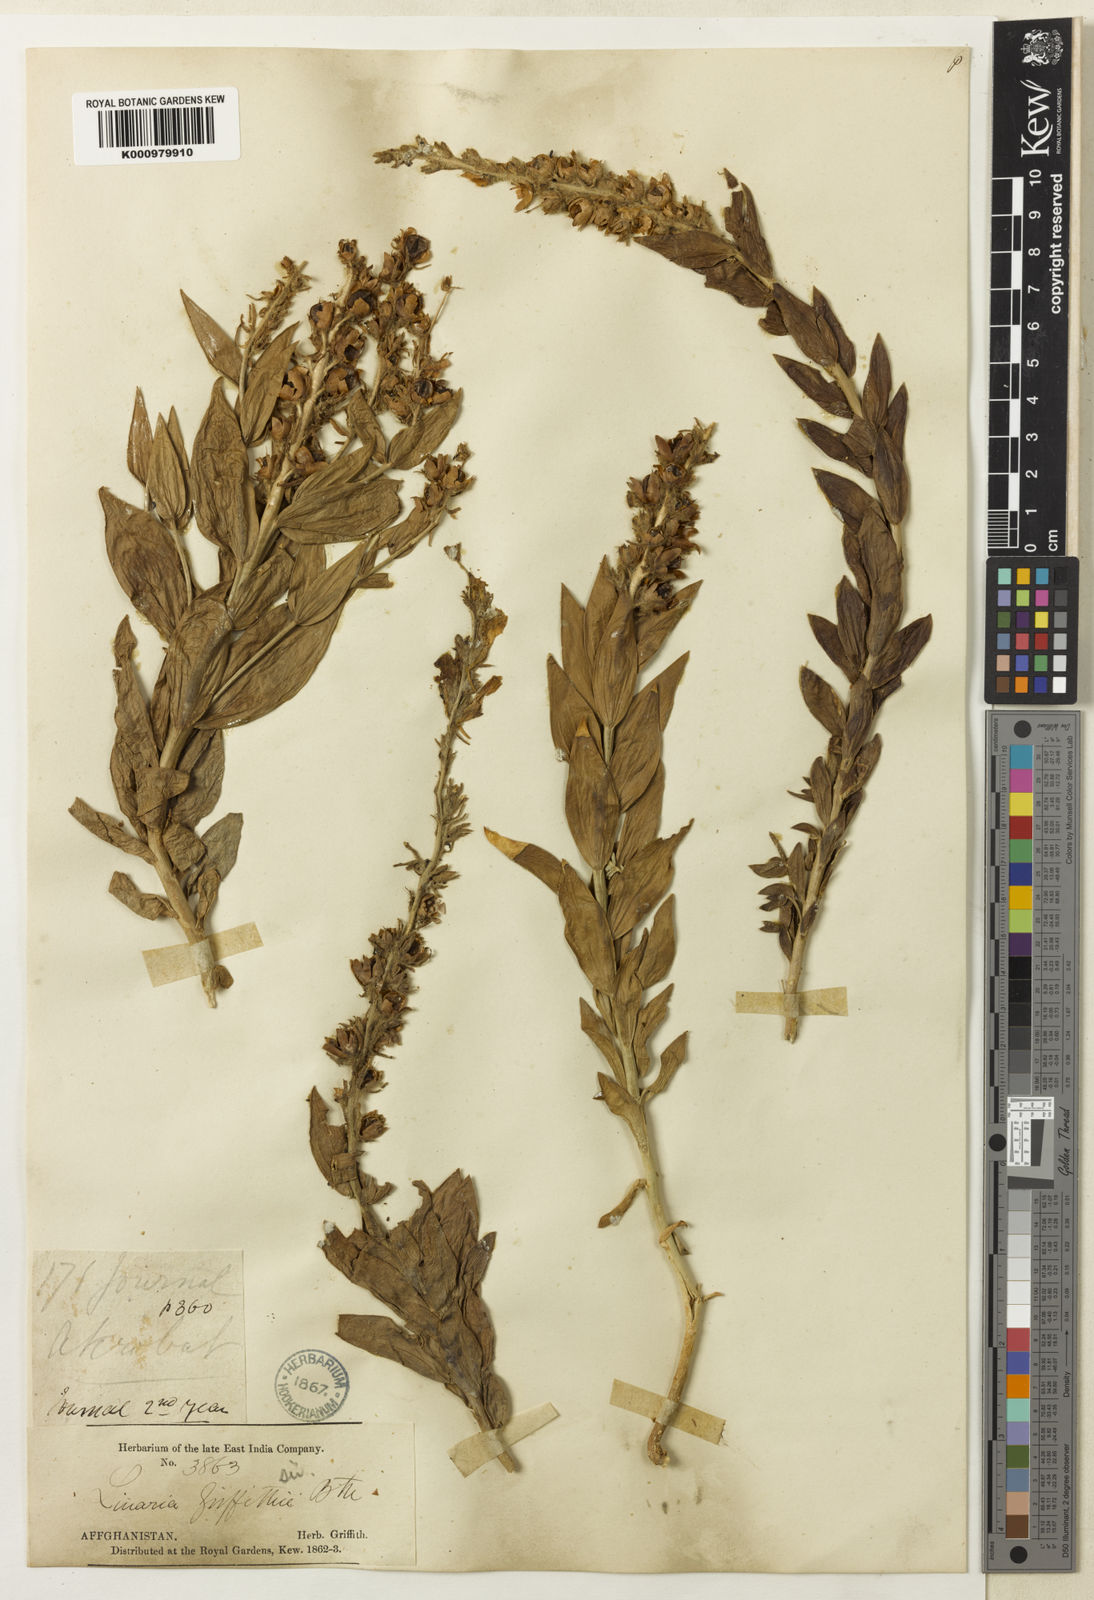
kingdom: Plantae
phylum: Tracheophyta
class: Magnoliopsida
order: Lamiales
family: Plantaginaceae
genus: Linaria
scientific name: Linaria griffithii
